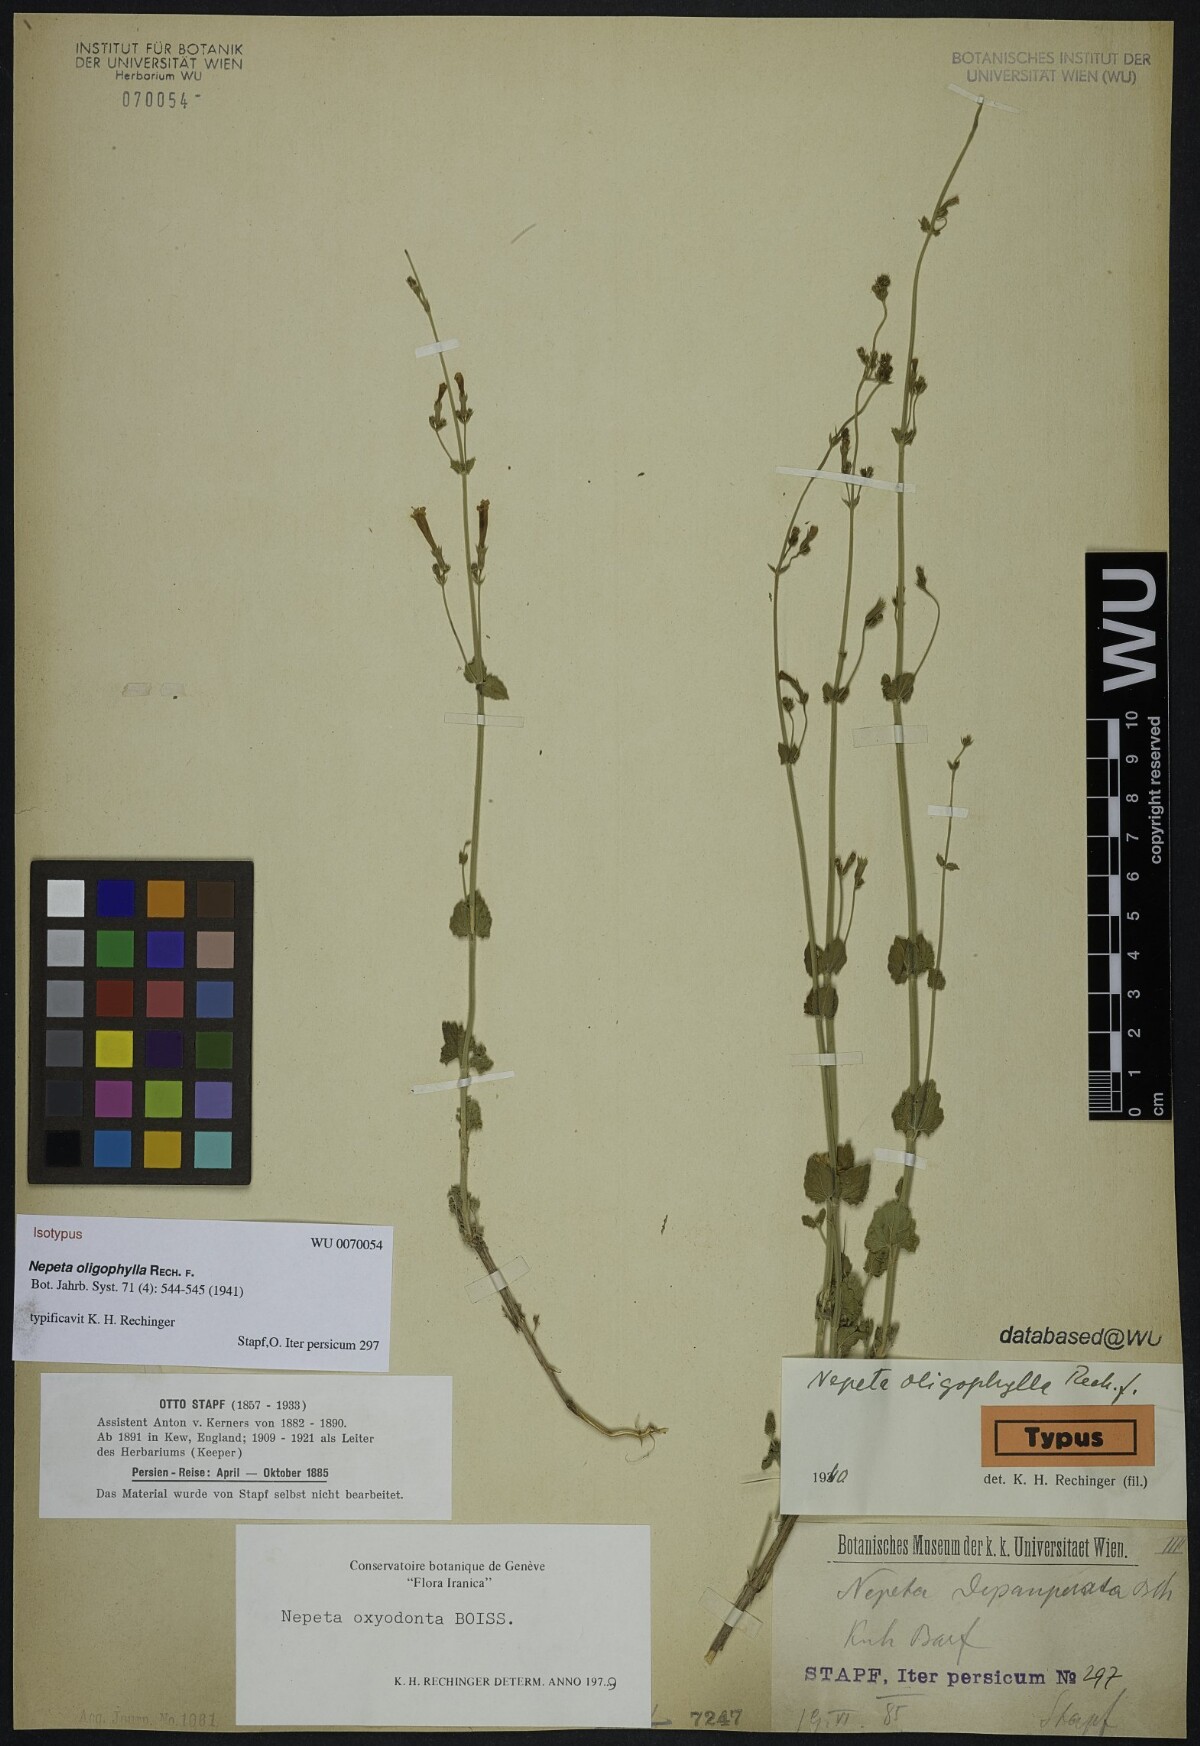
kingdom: Plantae
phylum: Tracheophyta
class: Magnoliopsida
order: Lamiales
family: Lamiaceae
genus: Nepeta
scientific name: Nepeta oxyodonta
